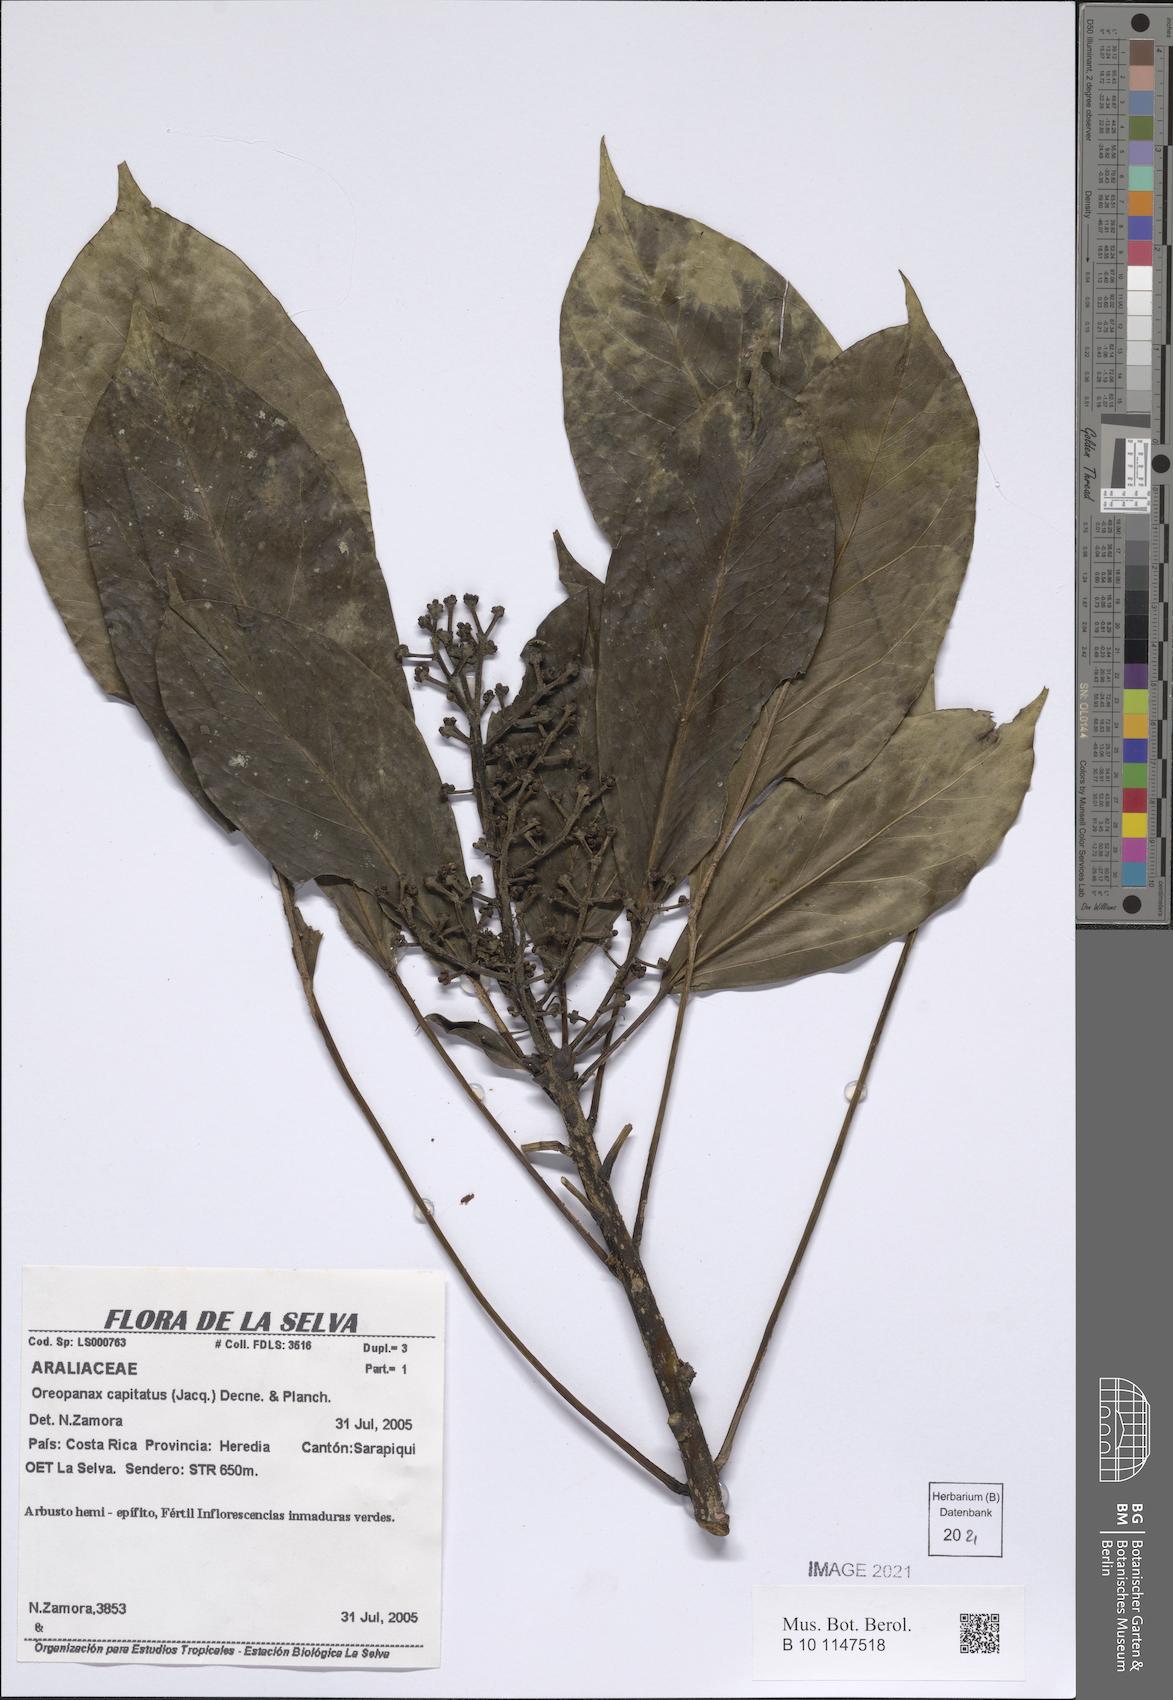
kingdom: Plantae
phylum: Tracheophyta
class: Magnoliopsida
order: Apiales
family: Araliaceae
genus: Oreopanax
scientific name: Oreopanax capitatus
